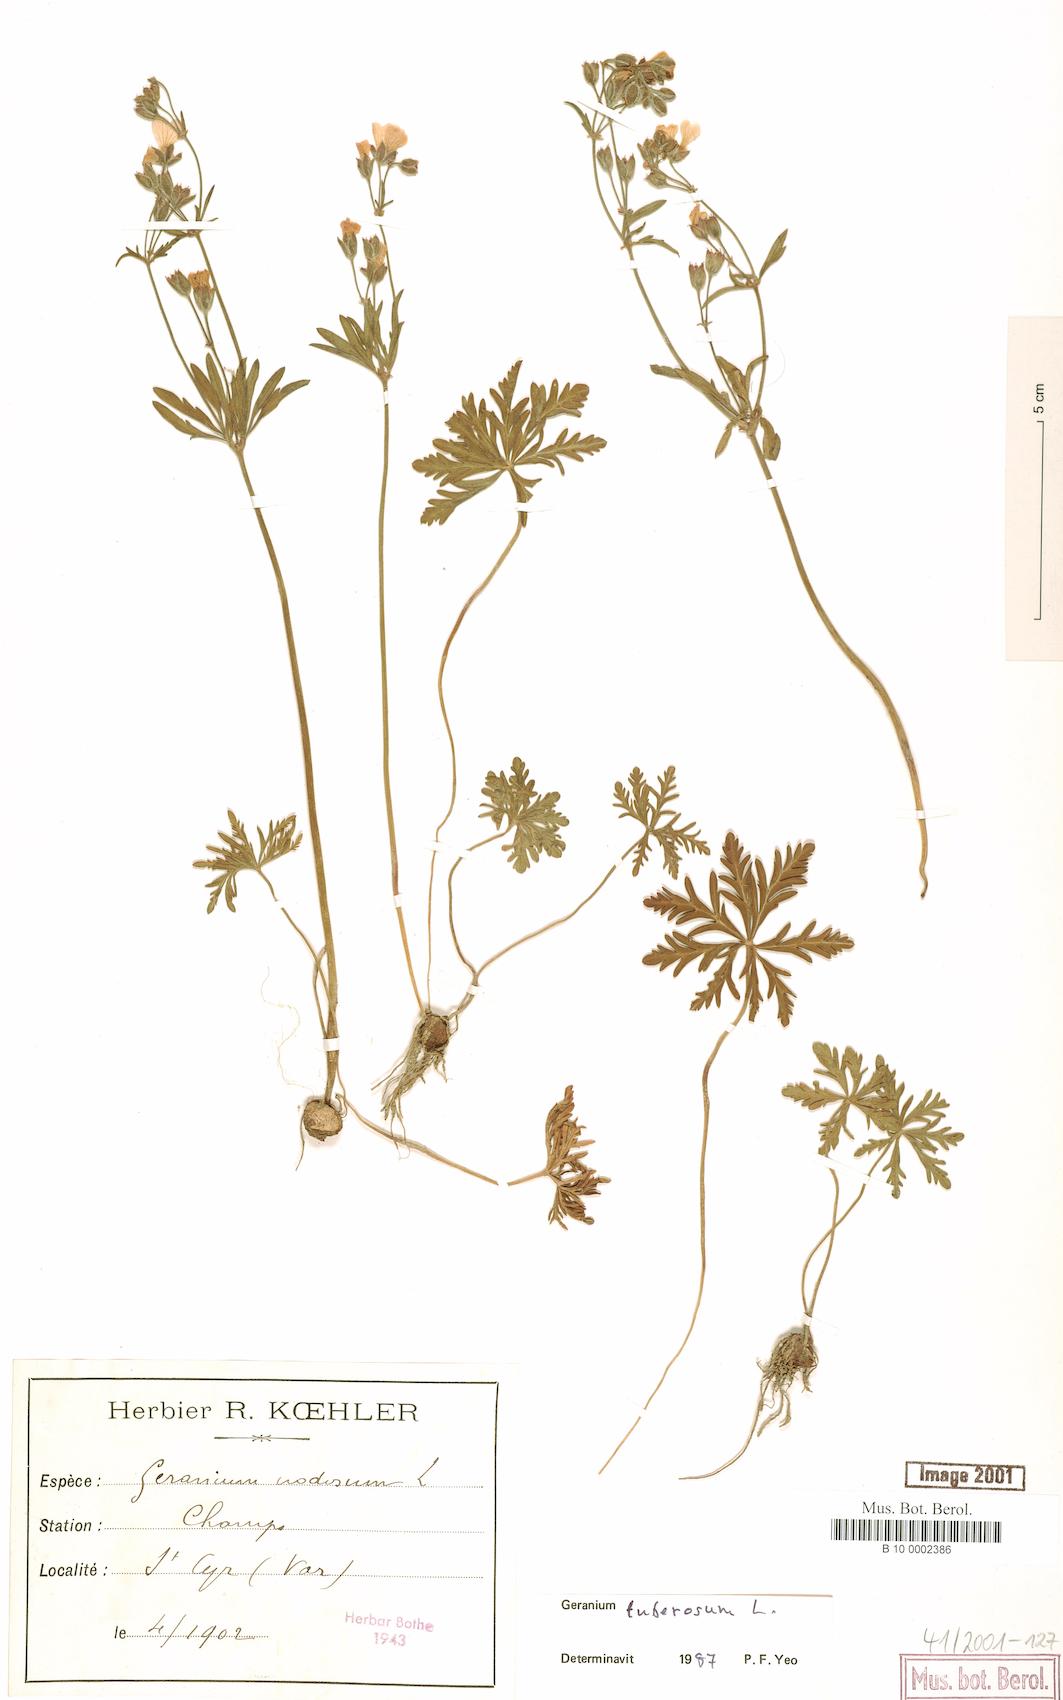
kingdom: Plantae
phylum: Tracheophyta
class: Magnoliopsida
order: Geraniales
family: Geraniaceae
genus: Geranium
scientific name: Geranium tuberosum
